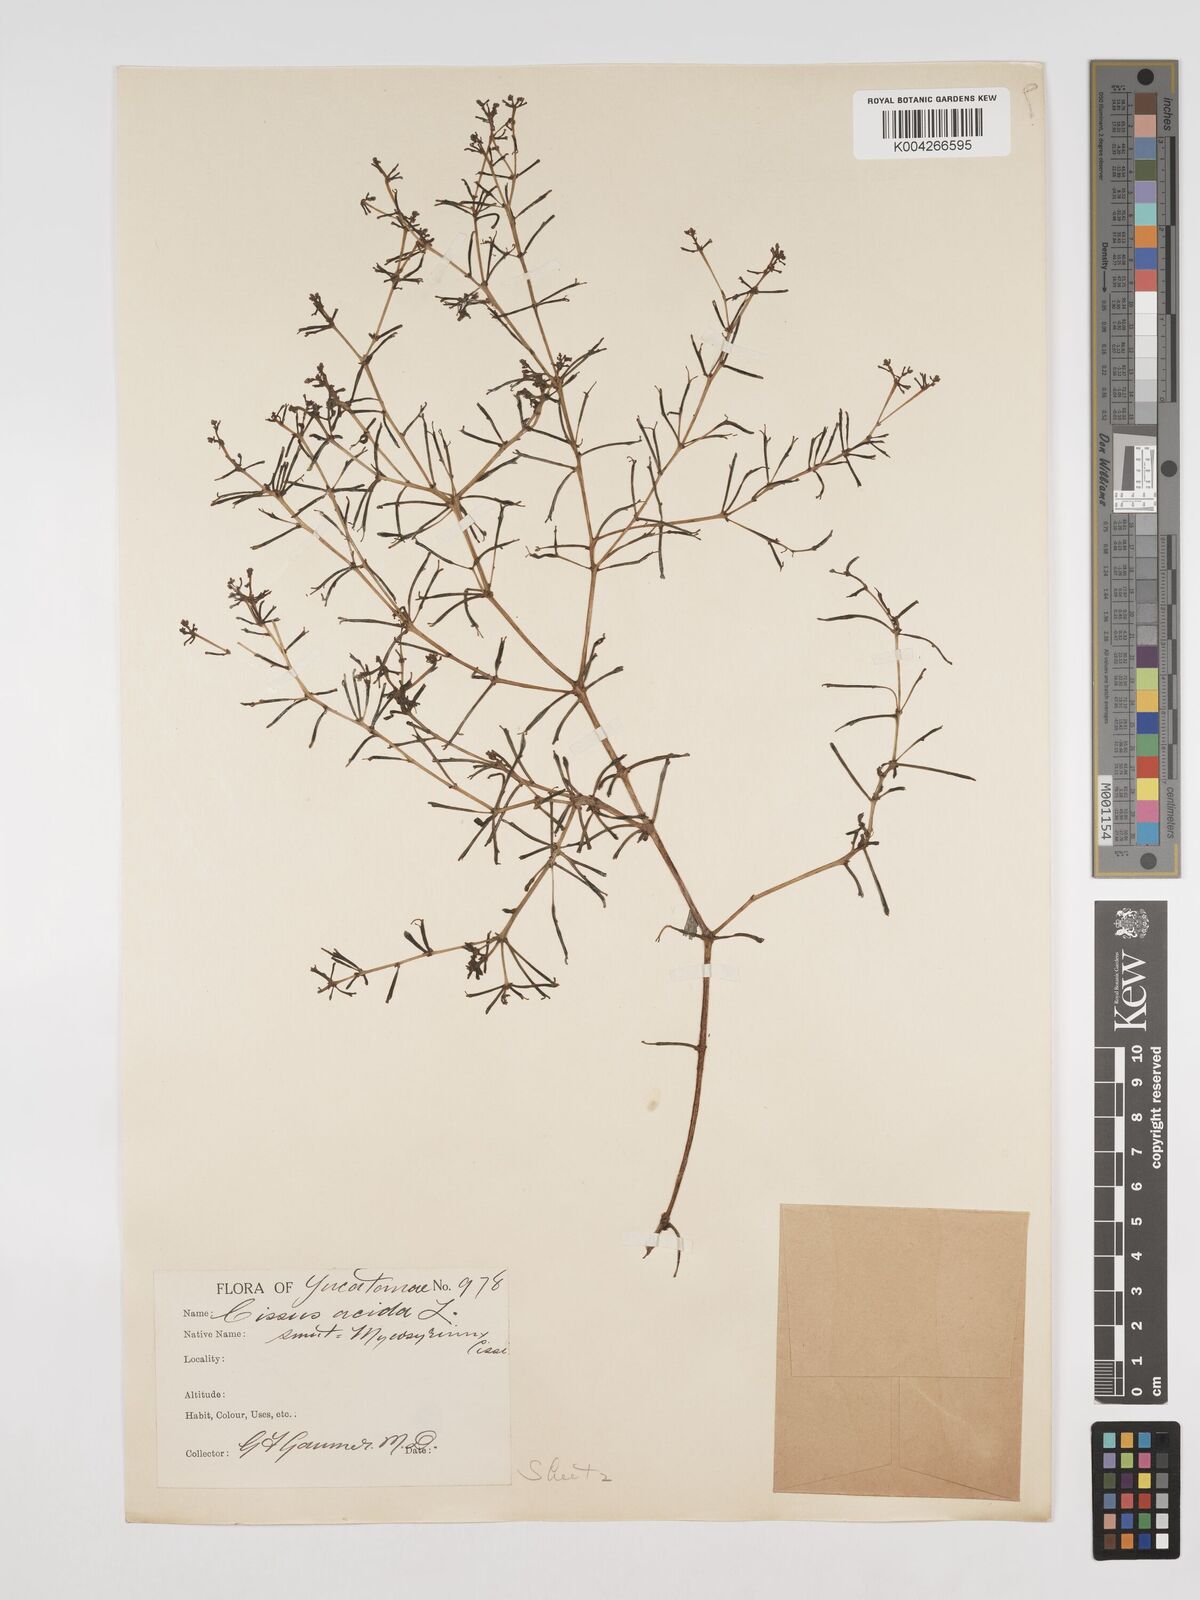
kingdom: Plantae
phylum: Tracheophyta
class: Magnoliopsida
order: Vitales
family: Vitaceae
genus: Cissus
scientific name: Cissus trifoliata
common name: Vine-sorrel
